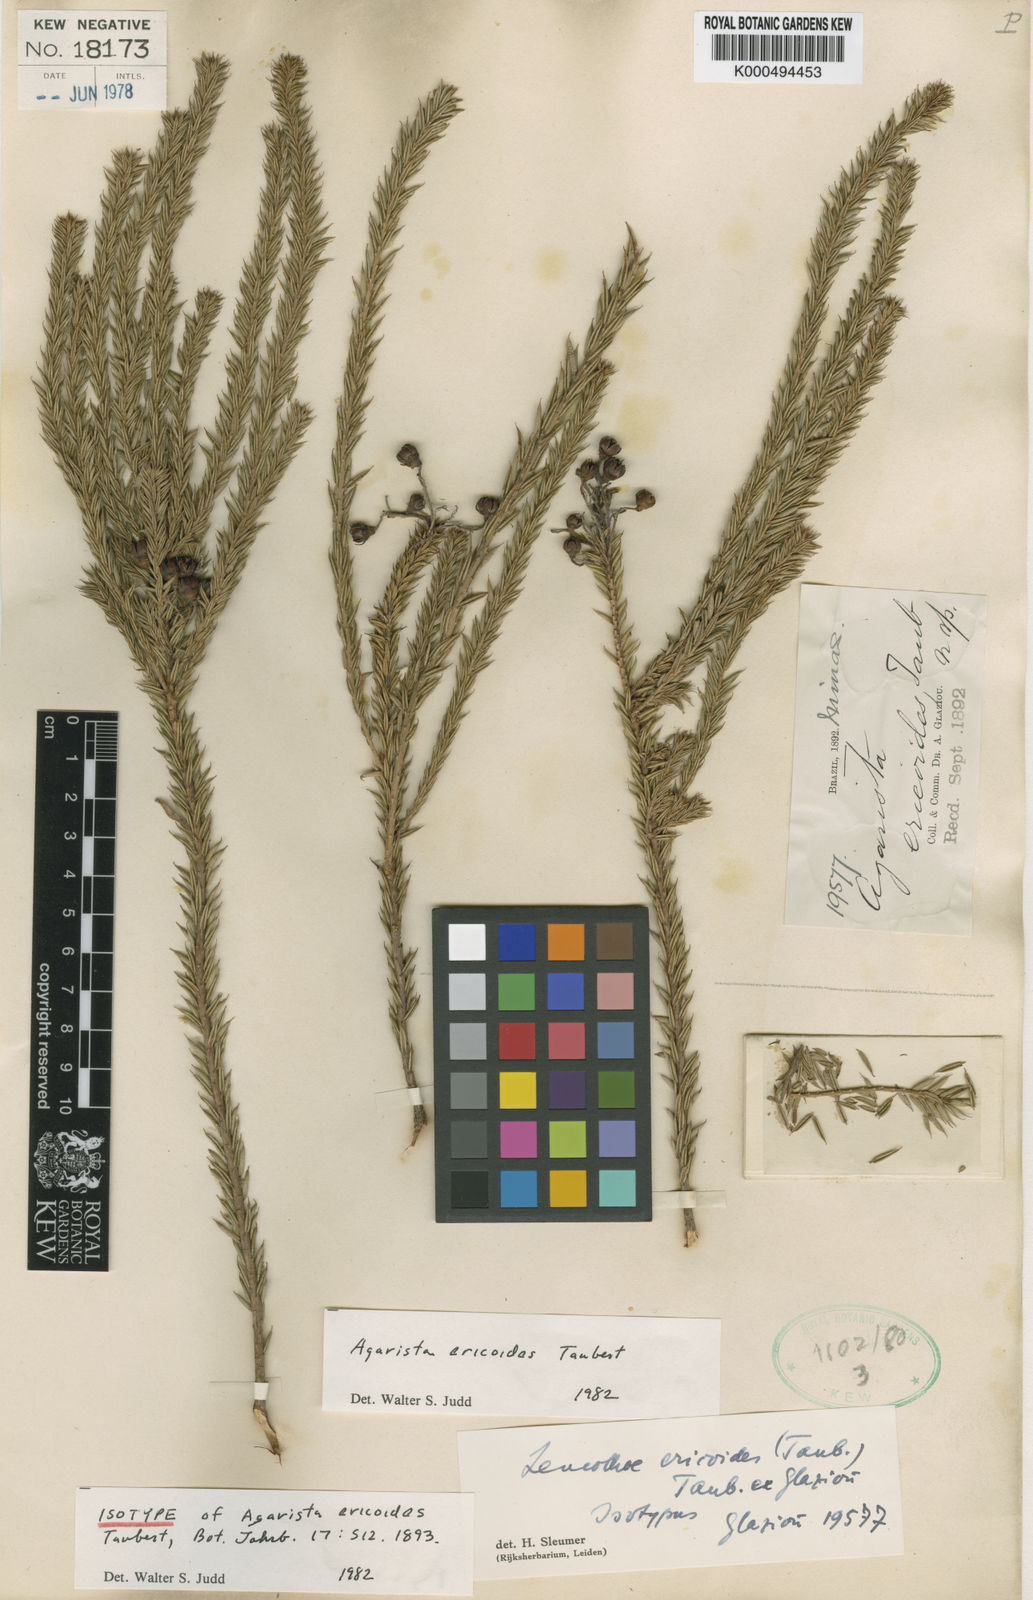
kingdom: Plantae
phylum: Tracheophyta
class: Magnoliopsida
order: Ericales
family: Ericaceae
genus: Agarista
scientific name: Agarista ericoides
